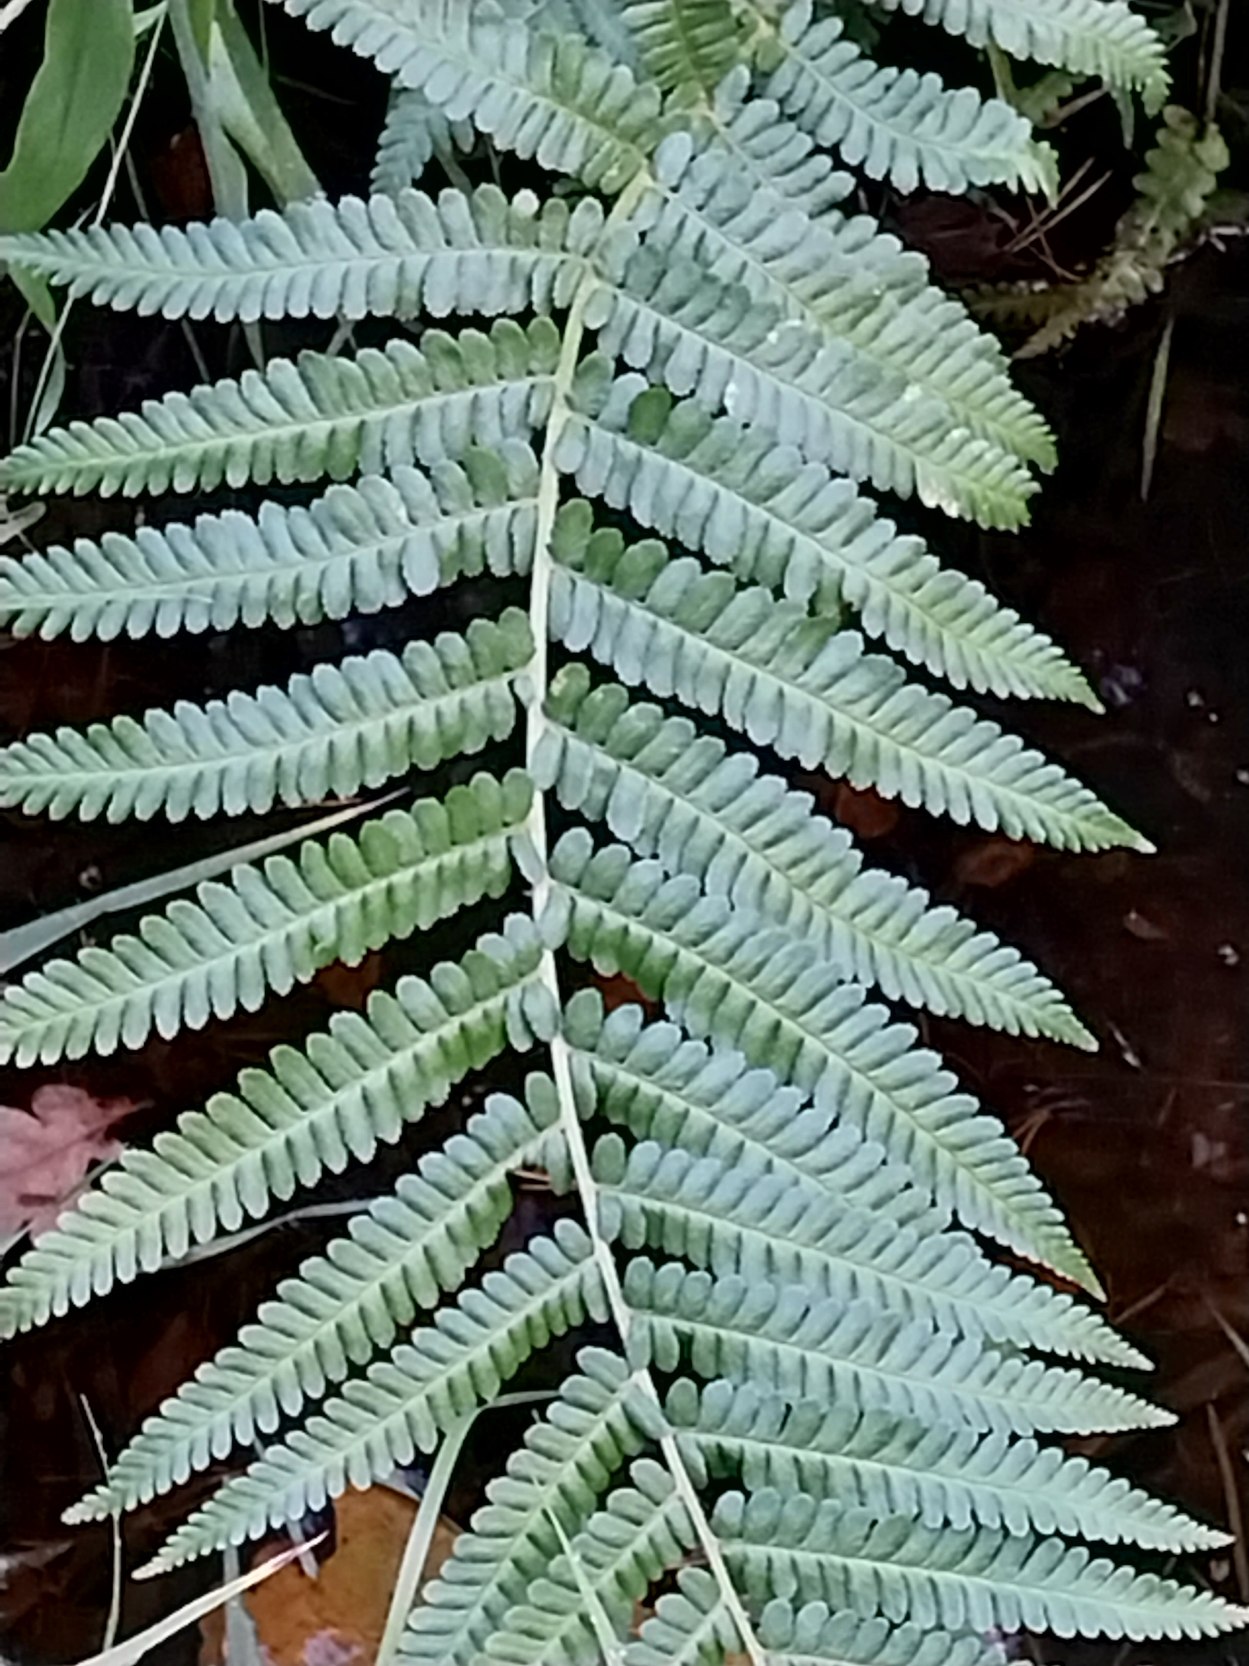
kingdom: Plantae
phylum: Tracheophyta
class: Polypodiopsida
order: Polypodiales
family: Dryopteridaceae
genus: Dryopteris
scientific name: Dryopteris filix-mas
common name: Almindelig mangeløv
